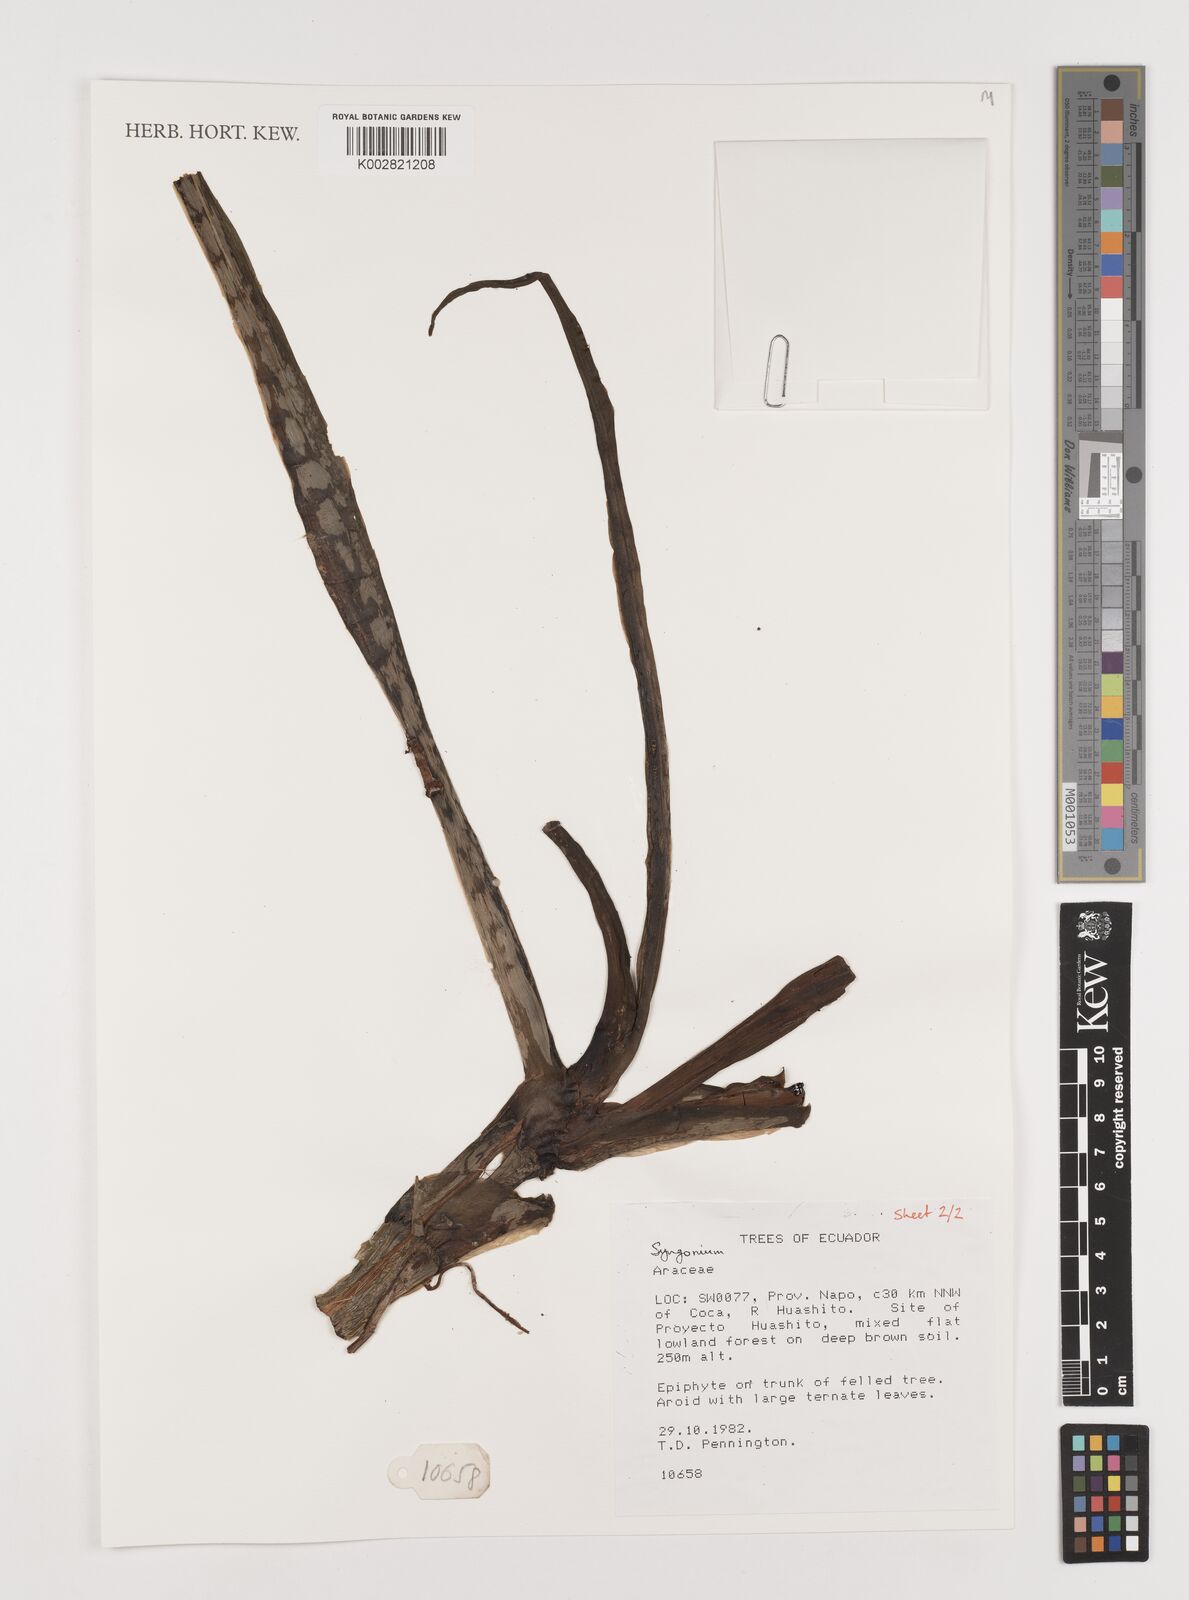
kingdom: Plantae
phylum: Tracheophyta
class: Liliopsida
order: Alismatales
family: Araceae
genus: Syngonium
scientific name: Syngonium
